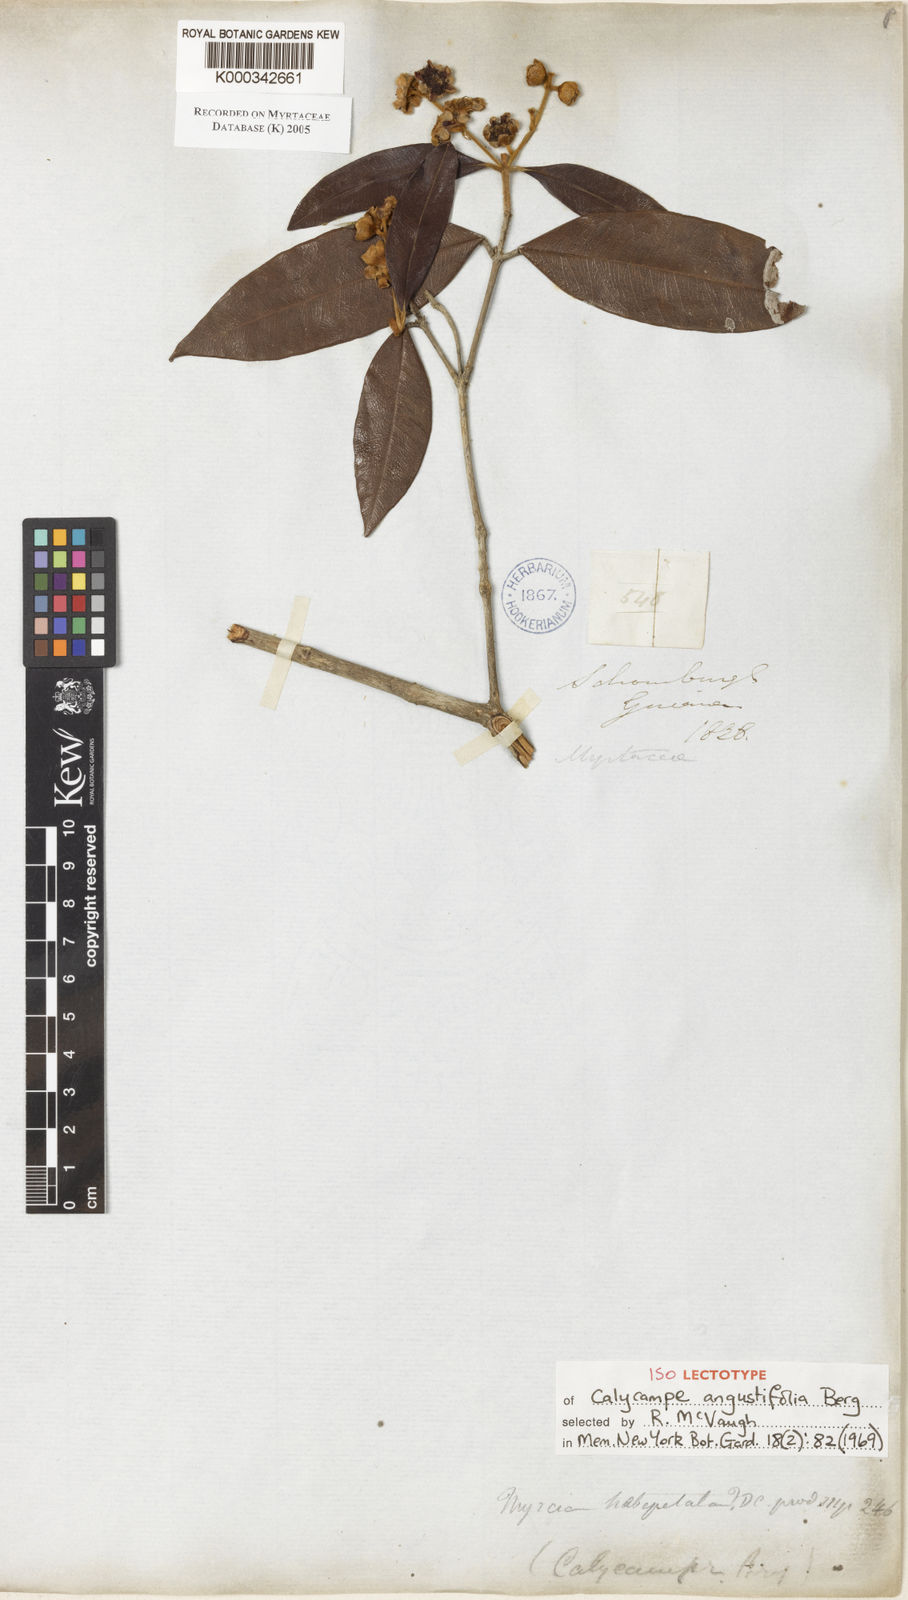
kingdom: Plantae
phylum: Tracheophyta
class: Magnoliopsida
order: Myrtales
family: Myrtaceae
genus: Myrcia
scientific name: Myrcia calycampa
